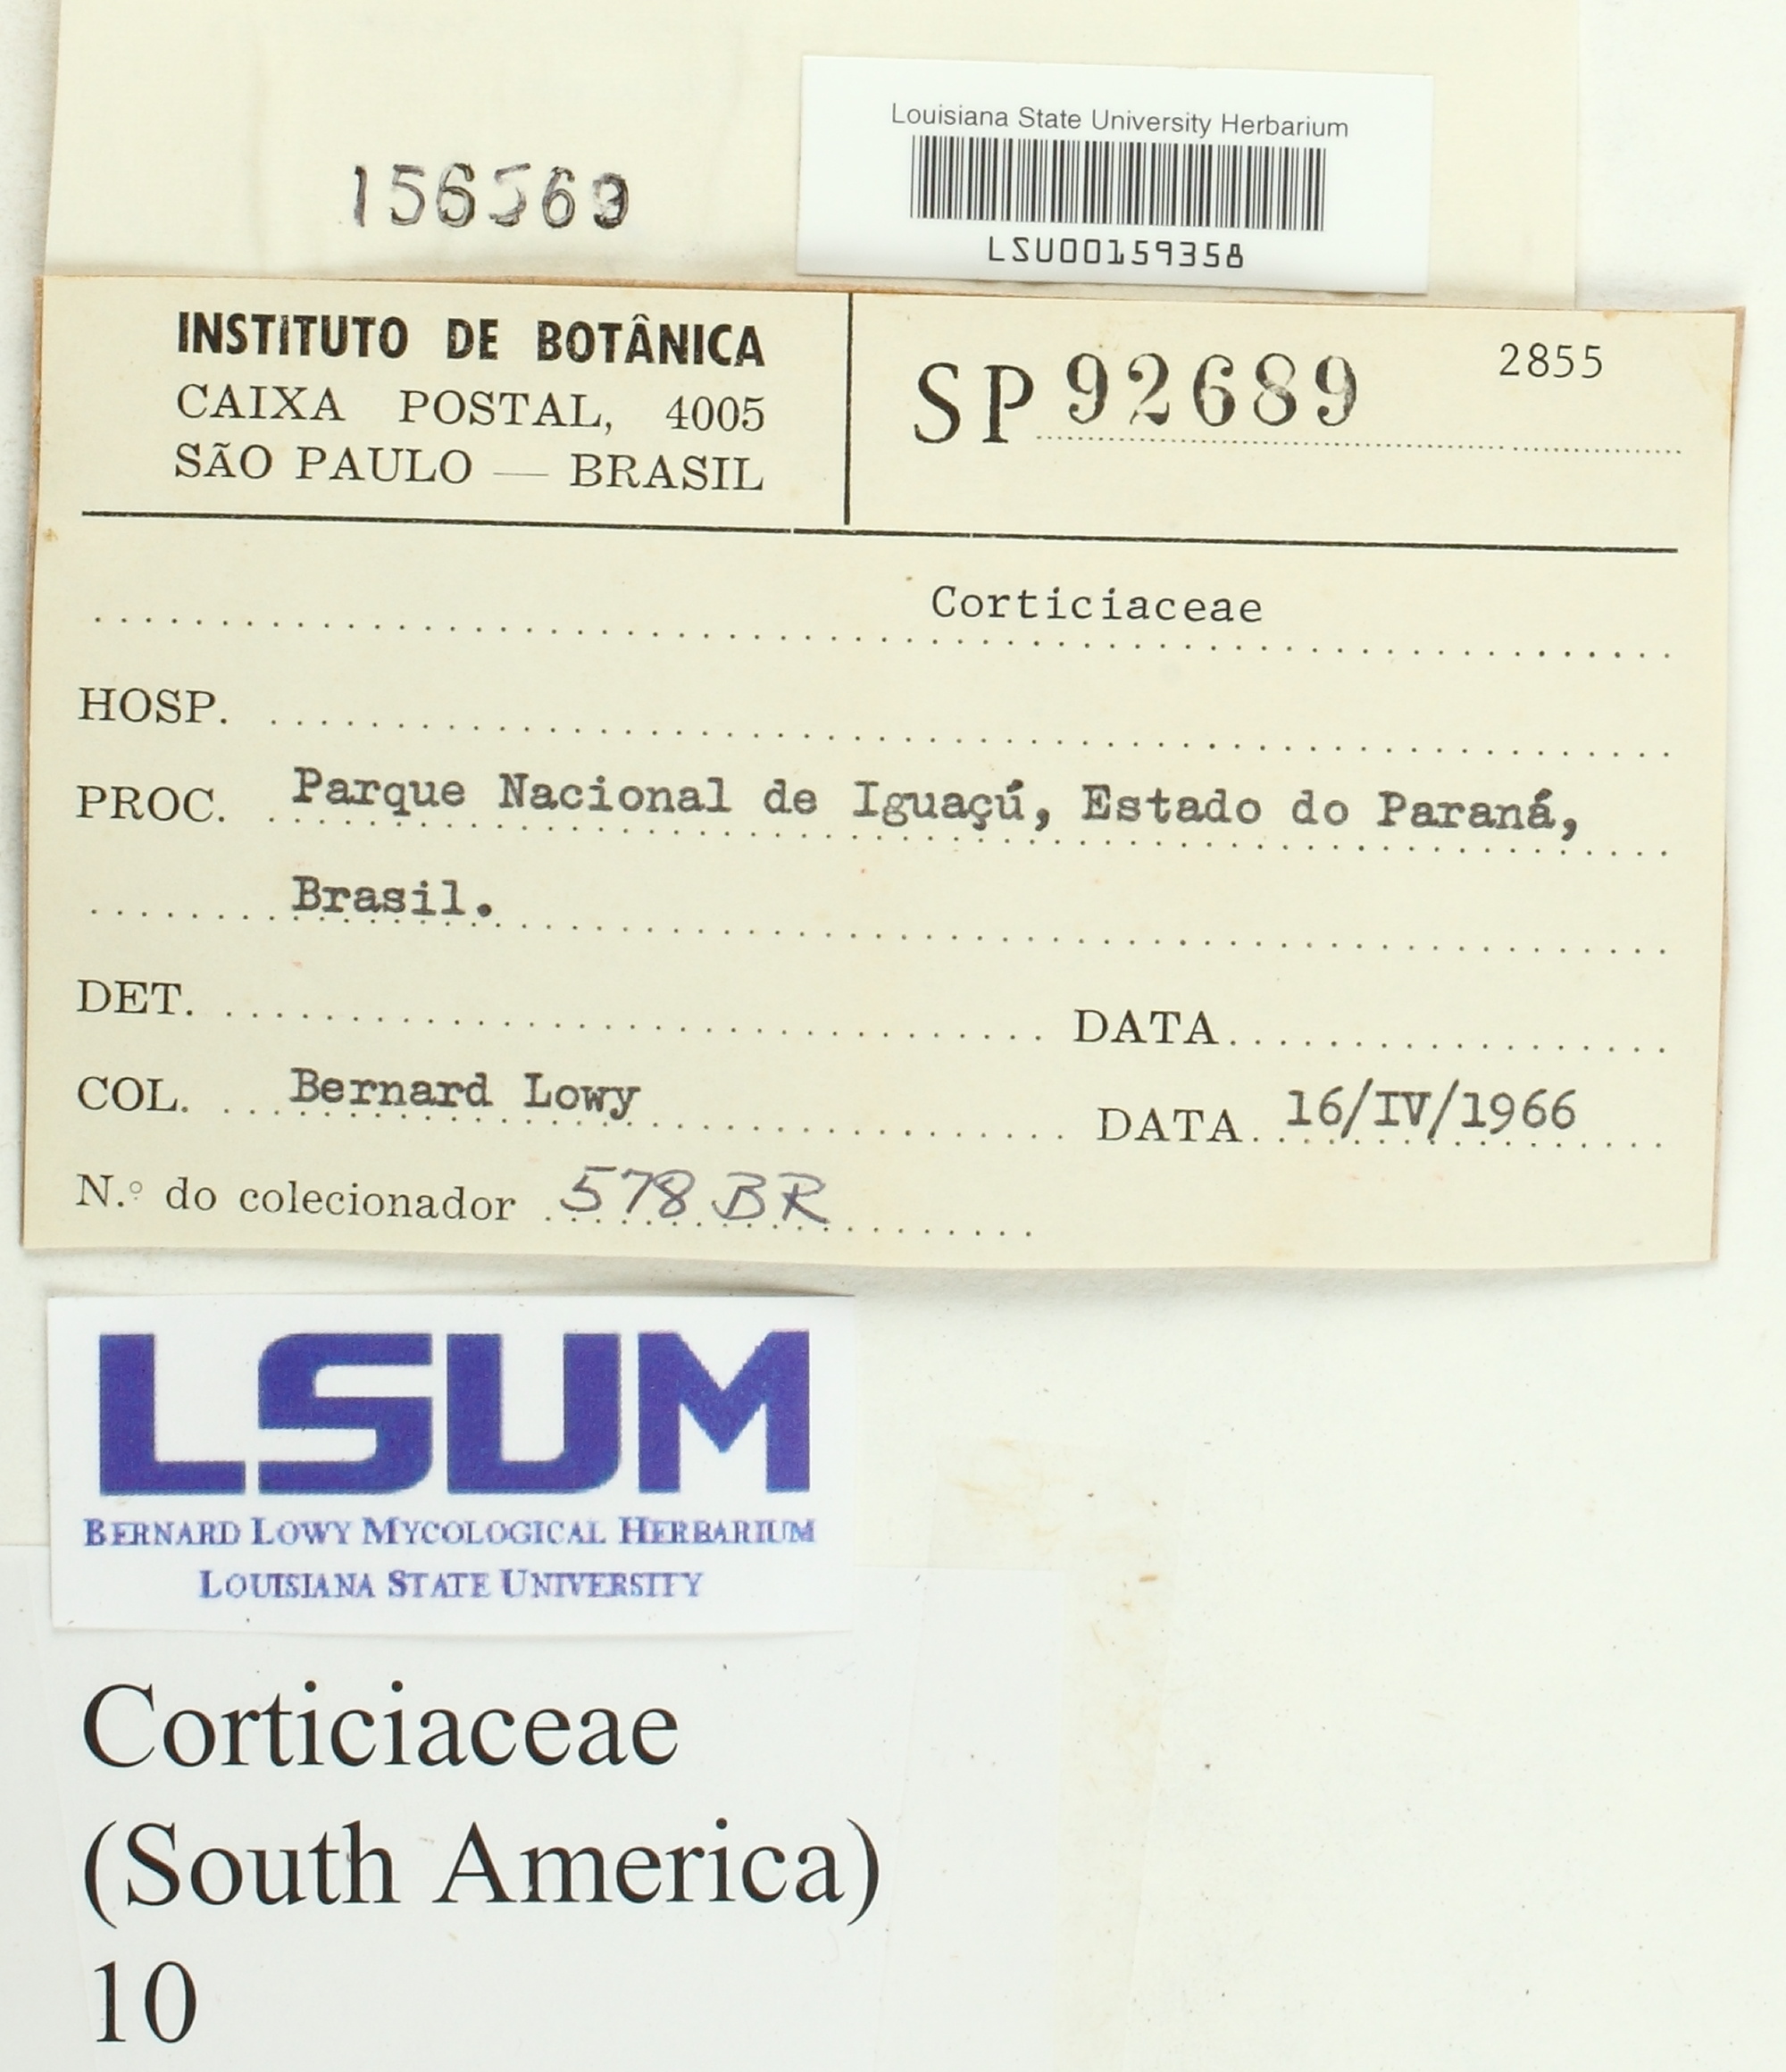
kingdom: Fungi
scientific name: Fungi
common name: Fungi
